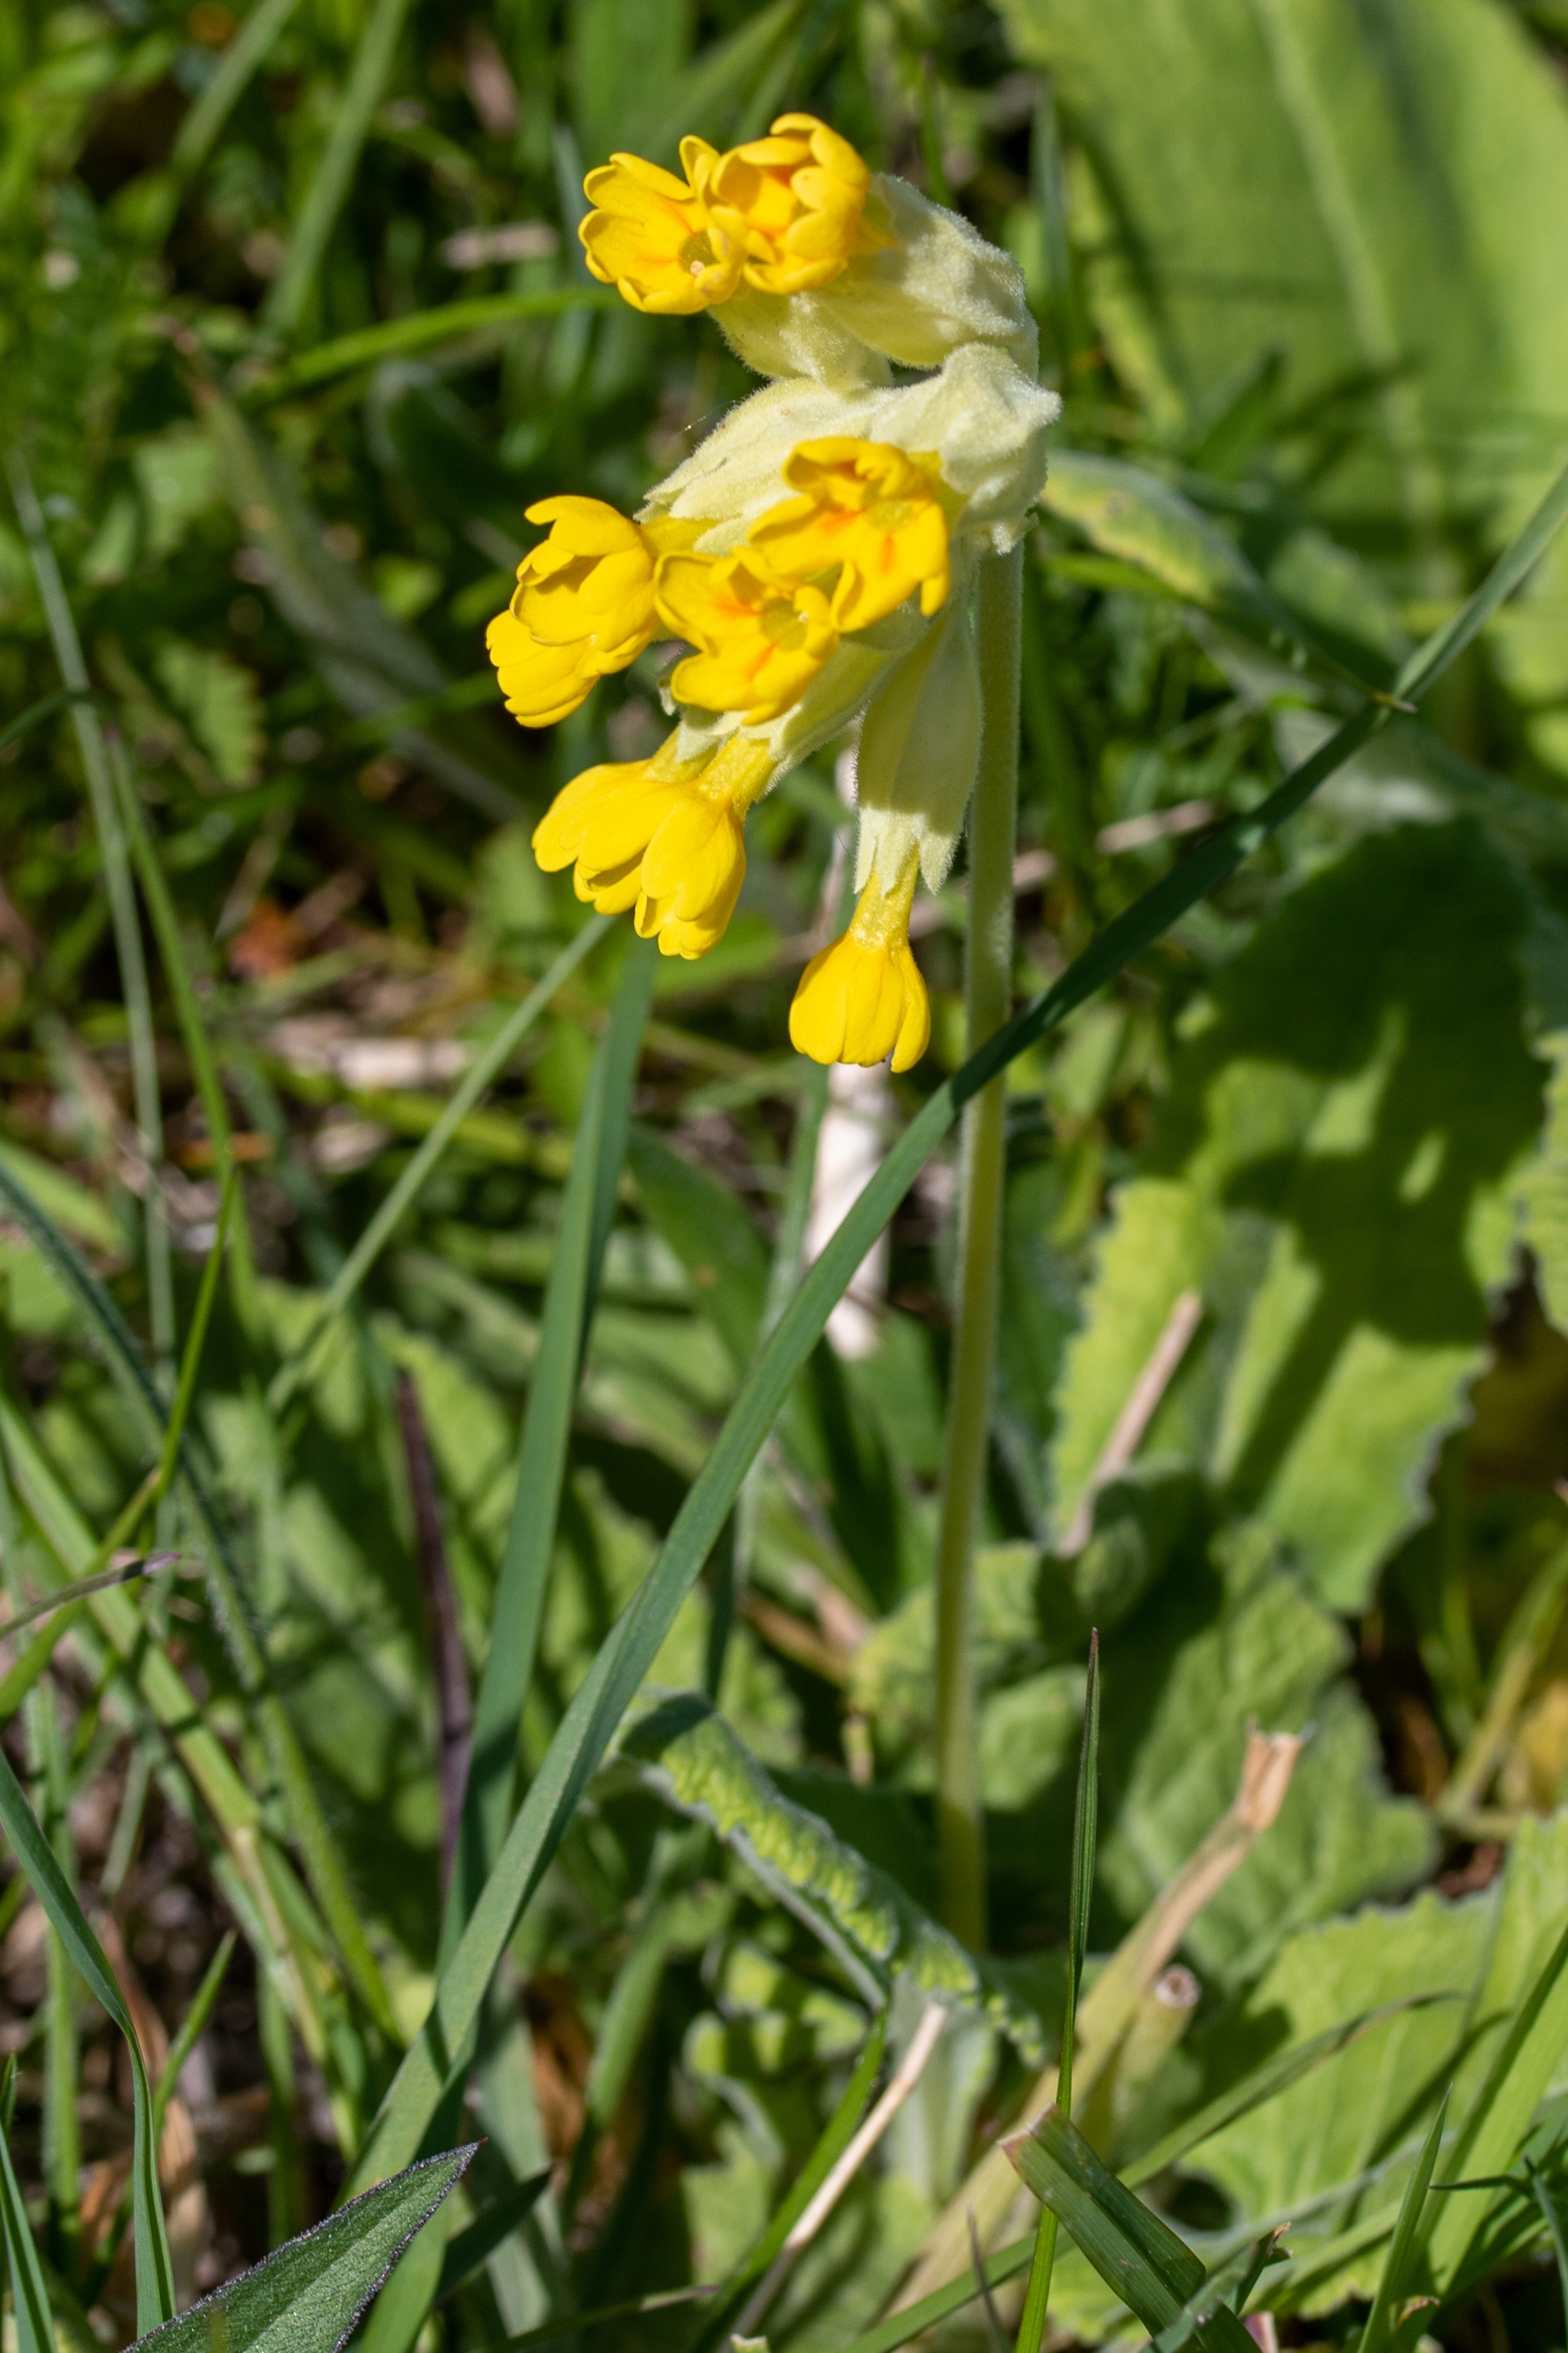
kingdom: Plantae
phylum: Tracheophyta
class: Magnoliopsida
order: Ericales
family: Primulaceae
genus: Primula
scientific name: Primula veris
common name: Hulkravet kodriver
